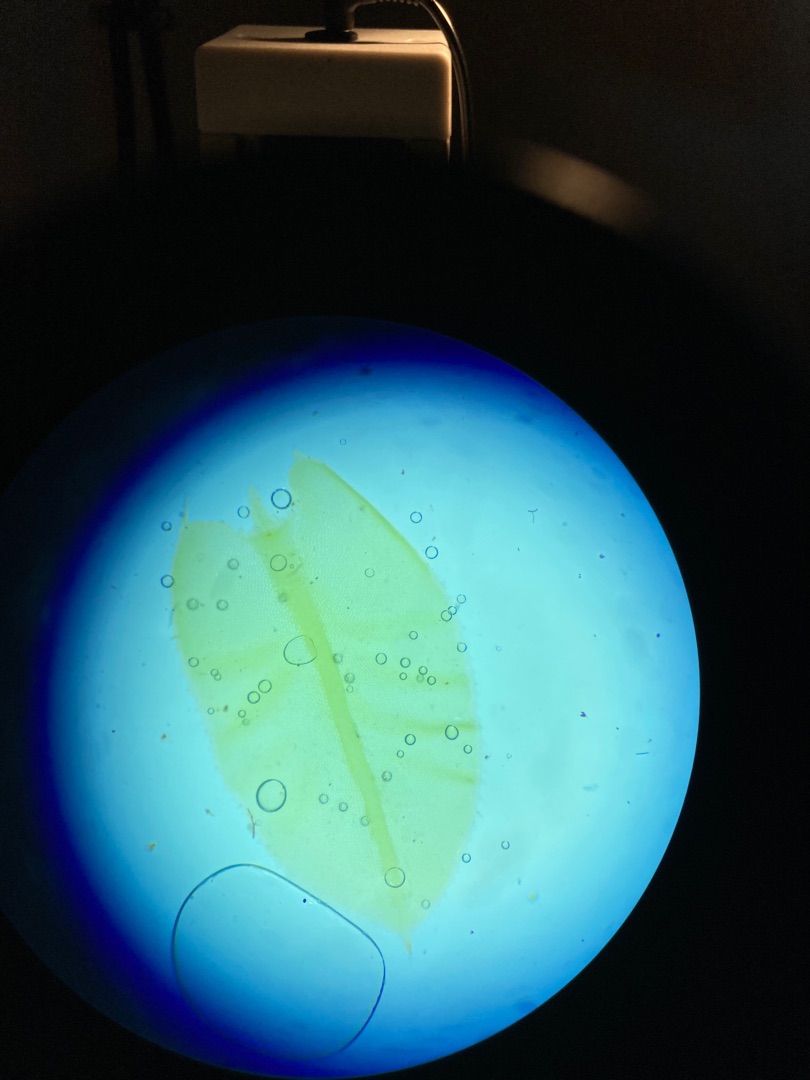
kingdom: Plantae
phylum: Bryophyta
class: Bryopsida
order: Bryales
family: Mniaceae
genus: Plagiomnium
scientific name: Plagiomnium
